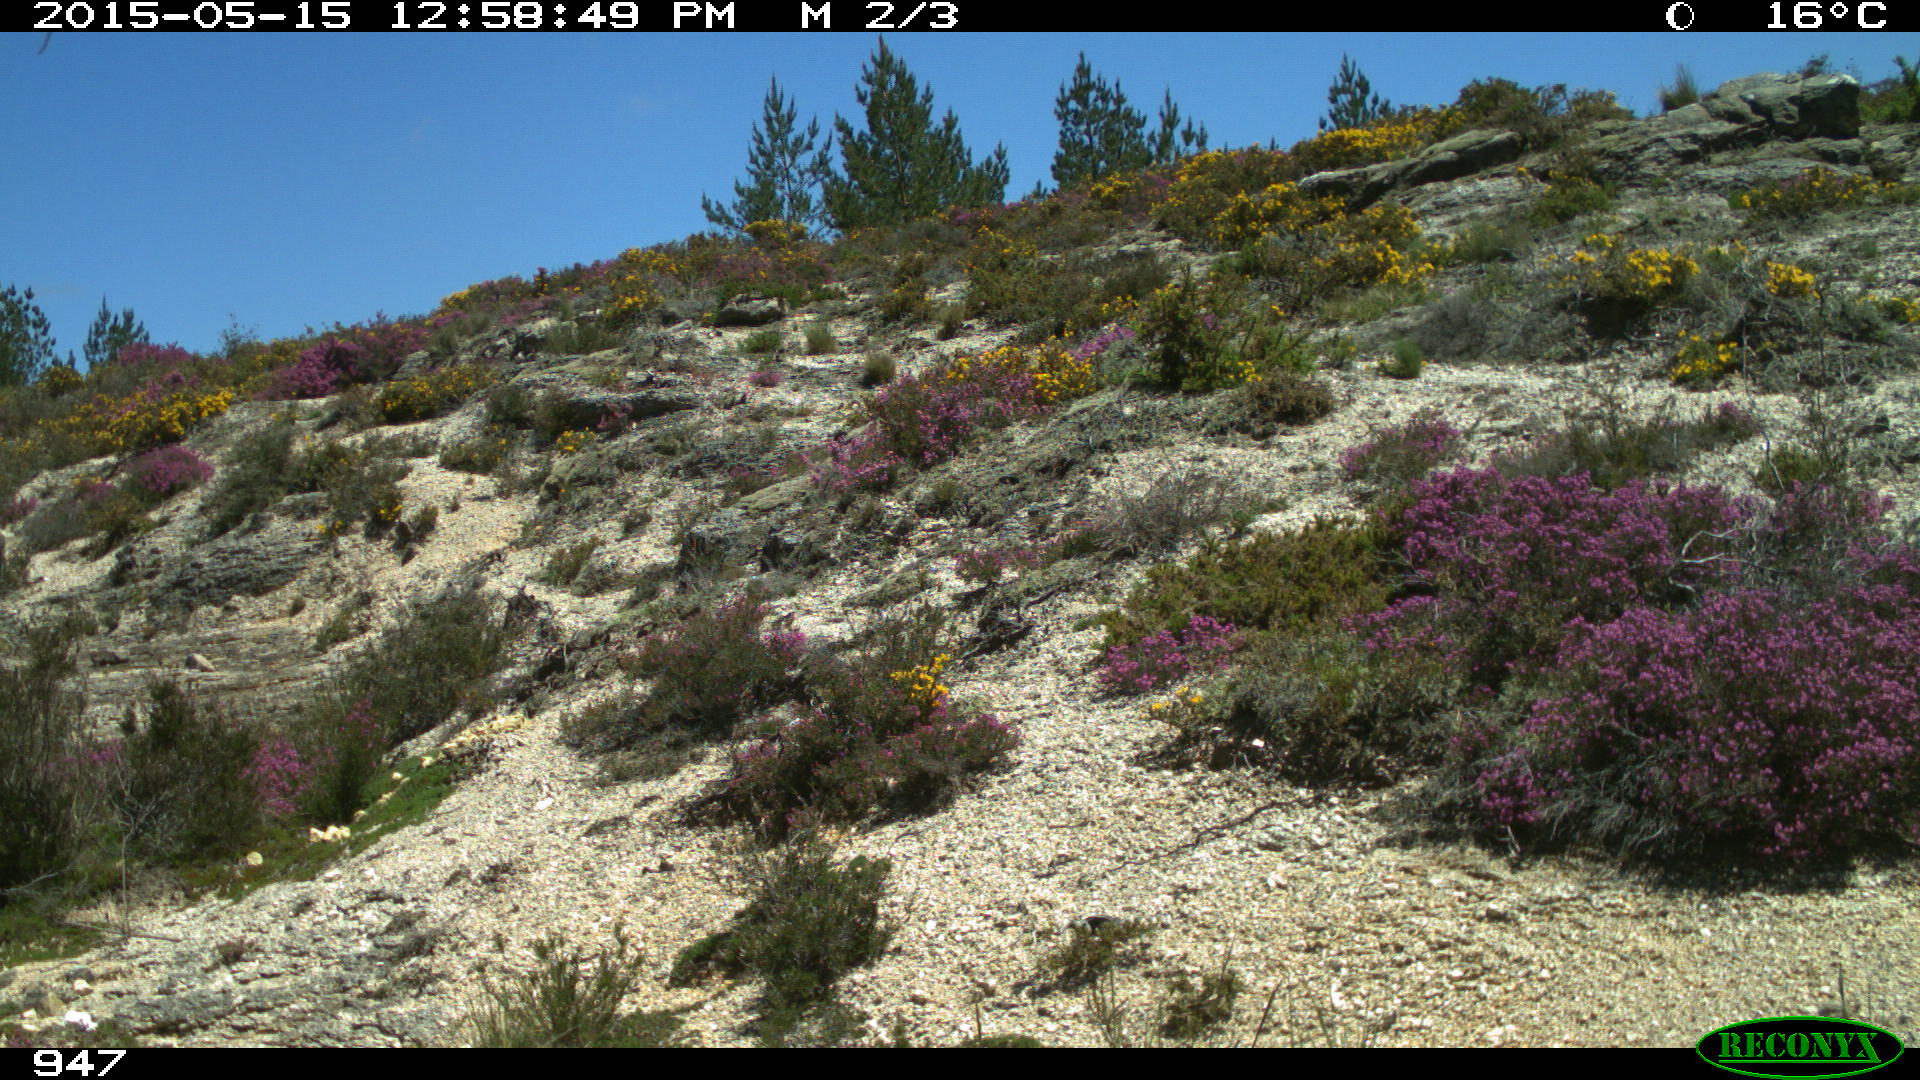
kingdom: Animalia
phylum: Chordata
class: Mammalia
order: Perissodactyla
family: Equidae
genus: Equus
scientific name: Equus caballus
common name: Horse
